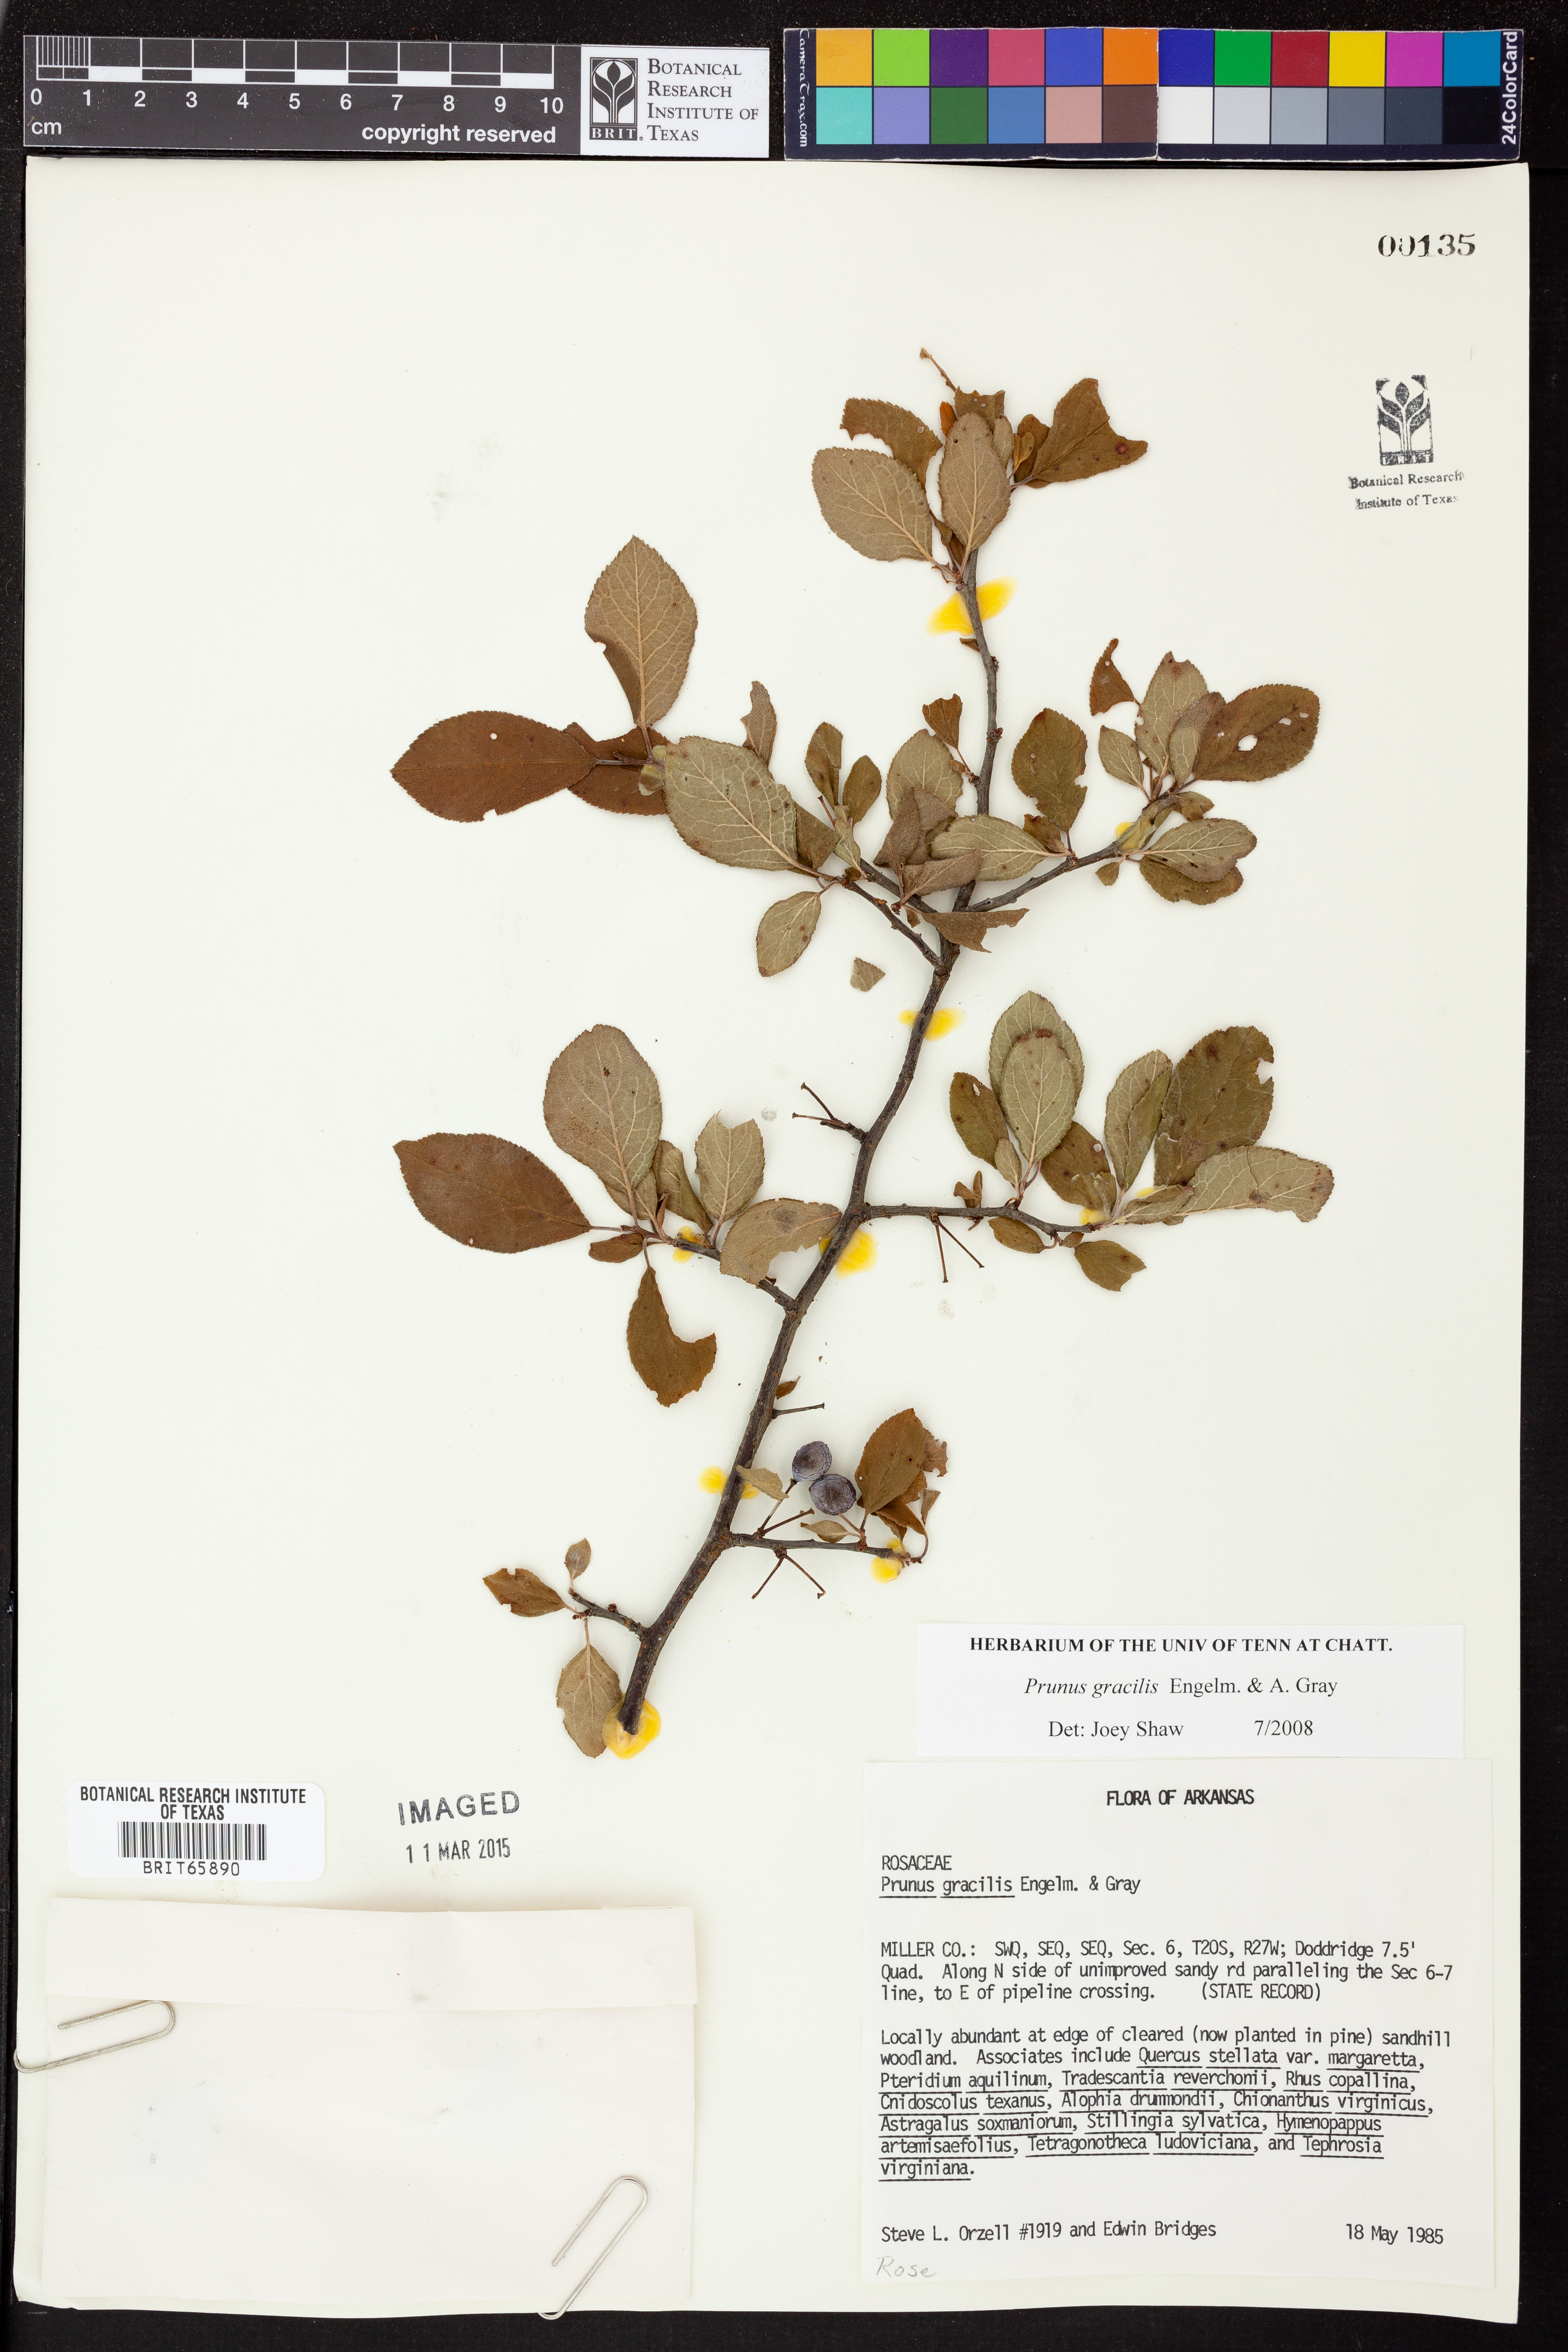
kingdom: Plantae
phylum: Tracheophyta
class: Magnoliopsida
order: Rosales
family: Rosaceae
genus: Prunus
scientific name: Prunus gracilis
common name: Oklahoma plum
